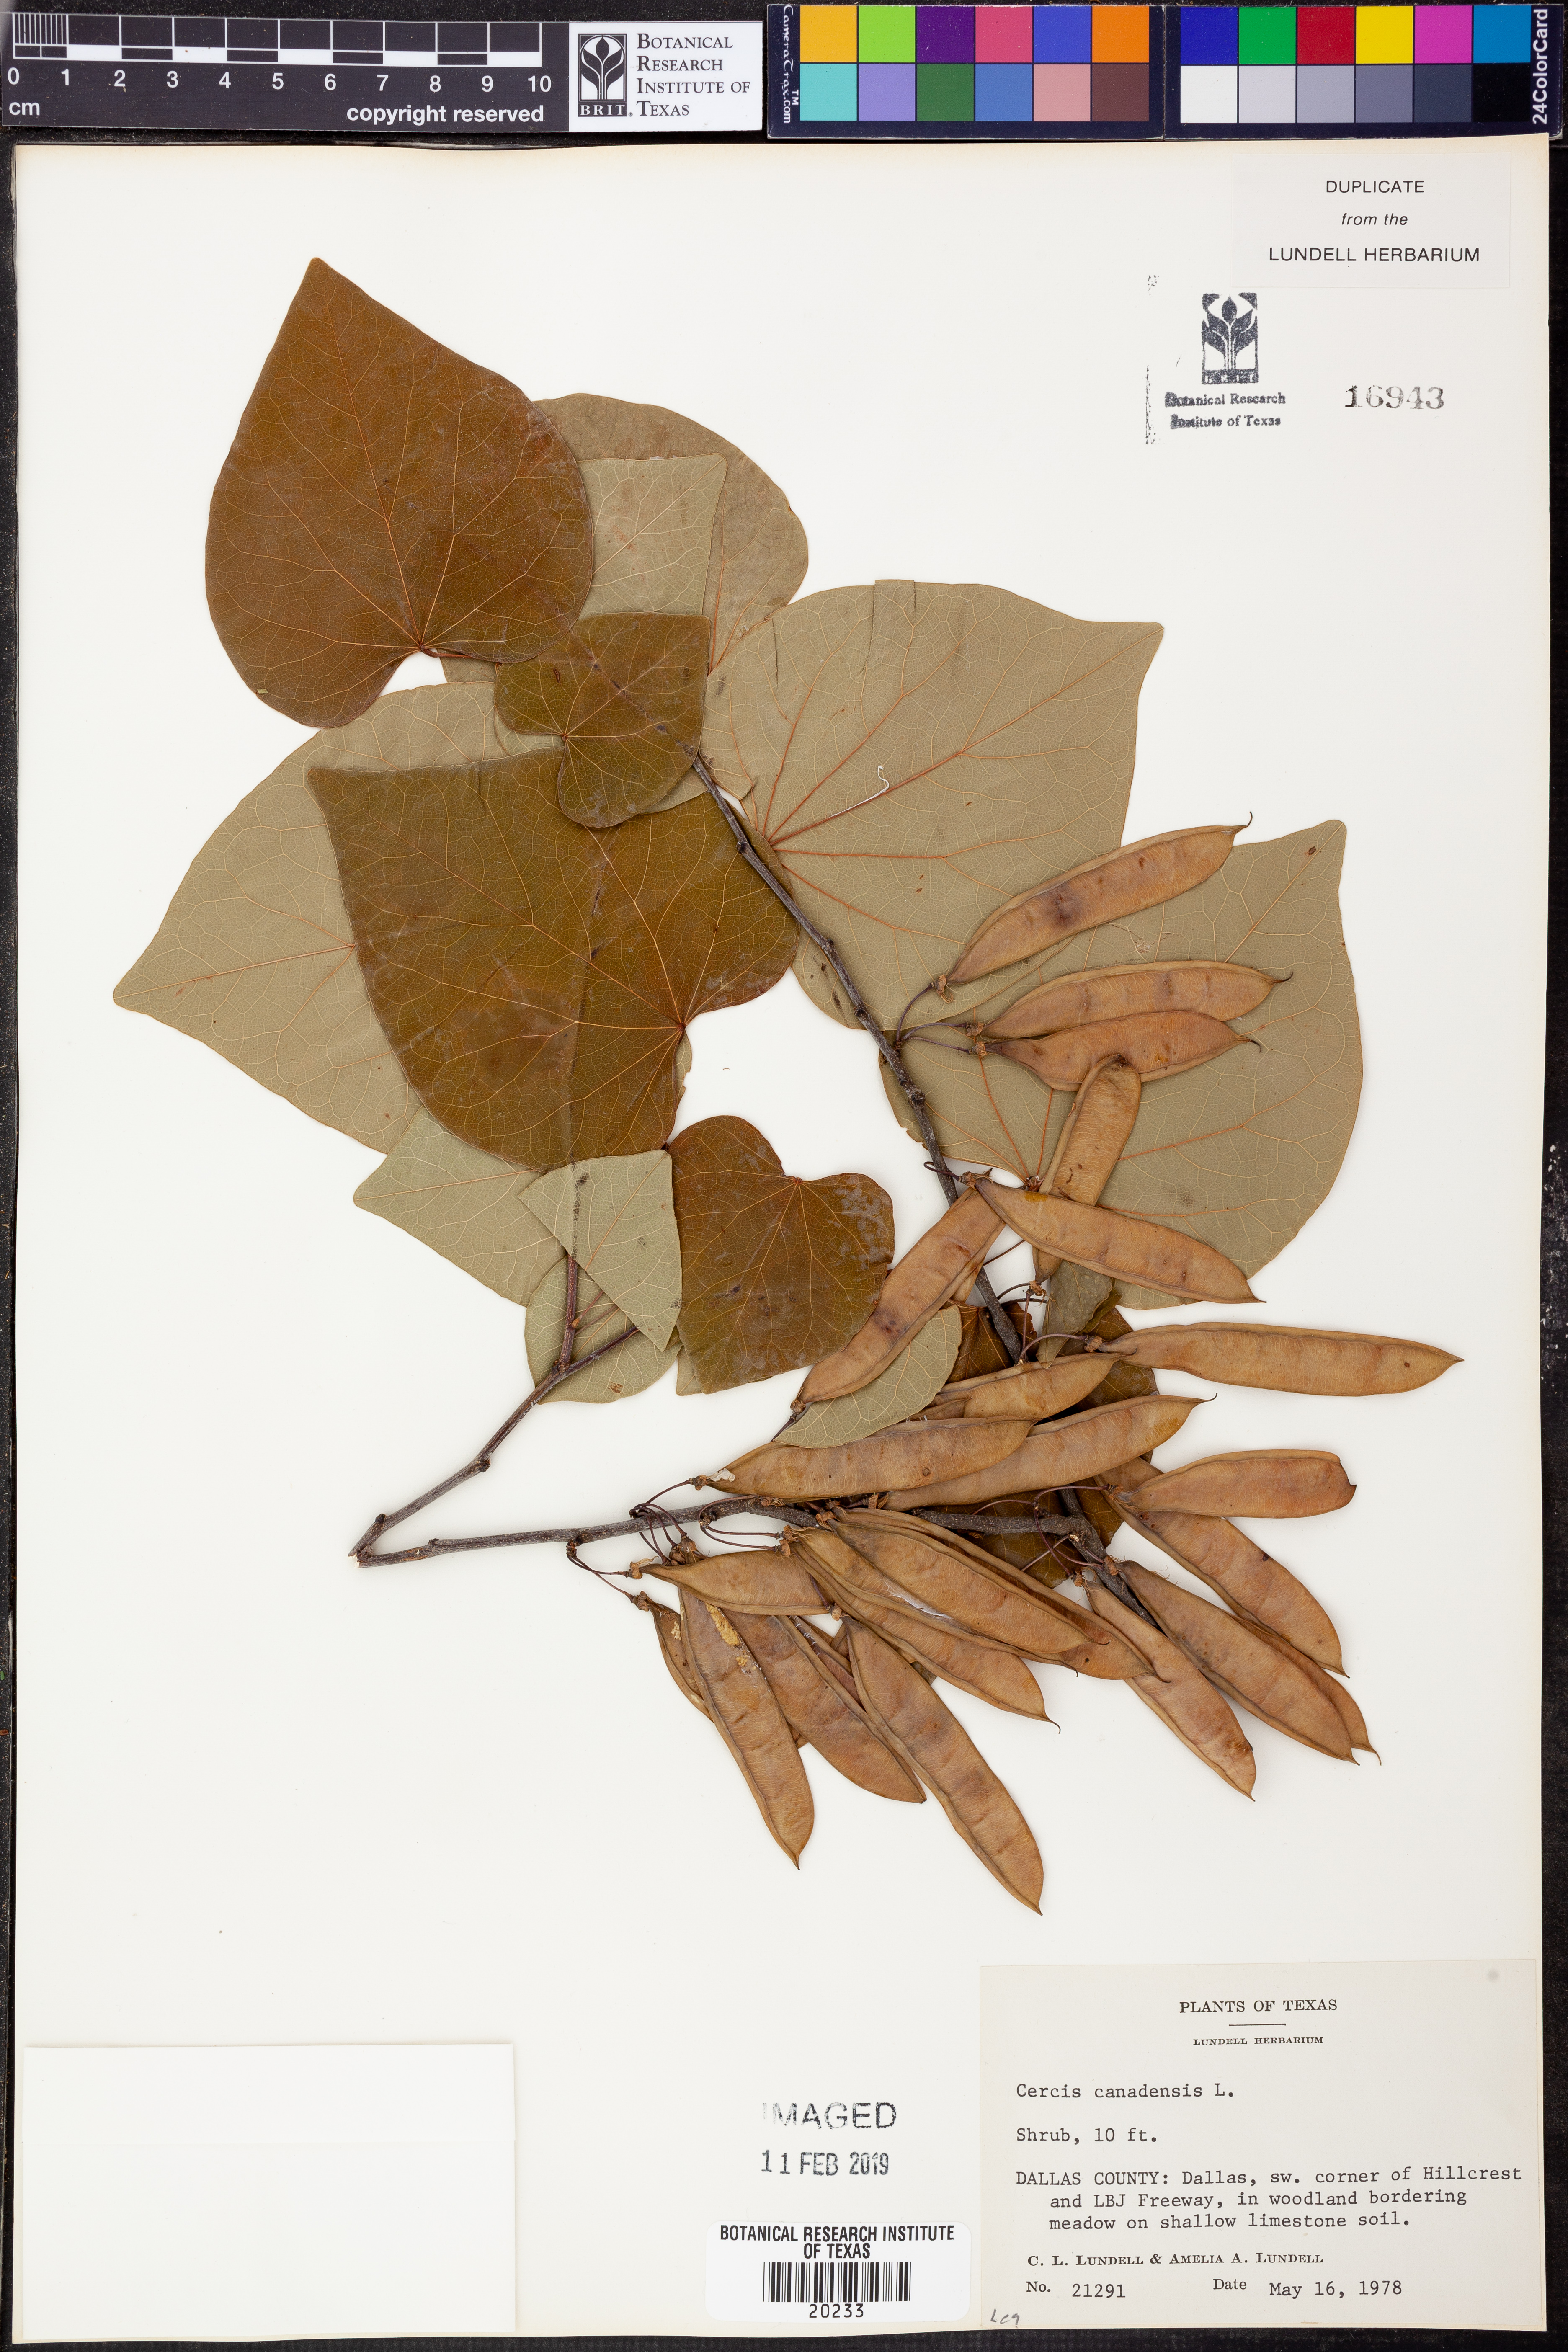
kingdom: Plantae
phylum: Tracheophyta
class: Magnoliopsida
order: Fabales
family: Fabaceae
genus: Cercis
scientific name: Cercis canadensis
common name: Eastern redbud
